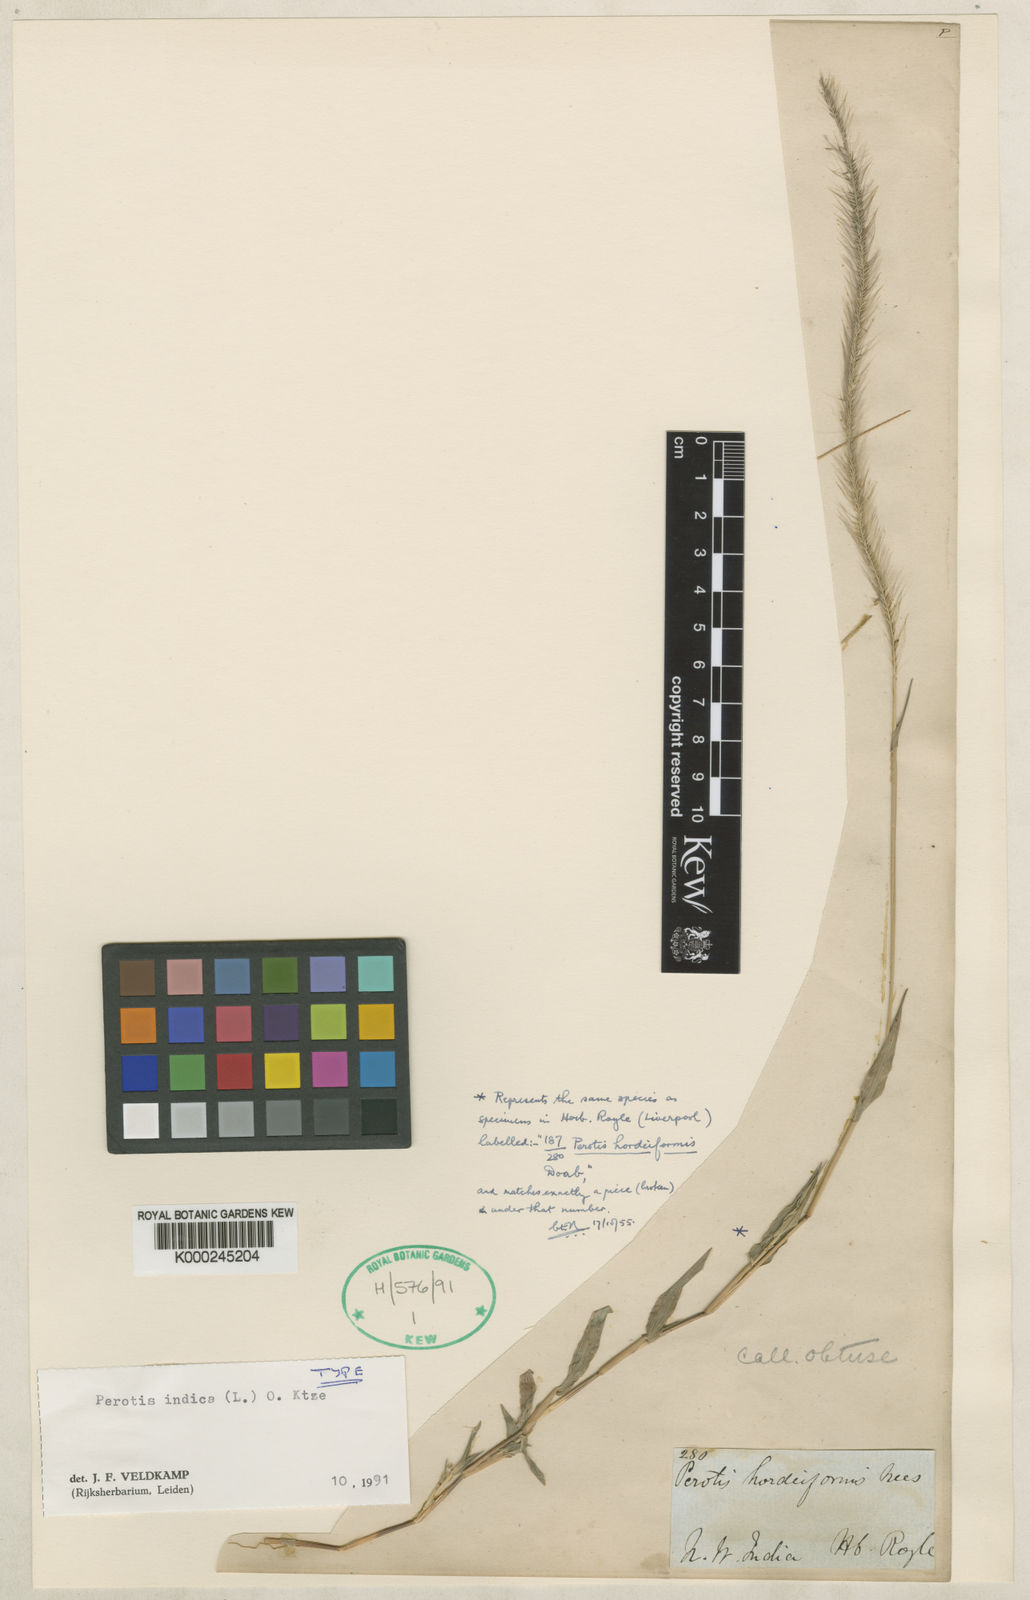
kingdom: Plantae
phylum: Tracheophyta
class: Liliopsida
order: Poales
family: Poaceae
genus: Perotis
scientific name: Perotis
